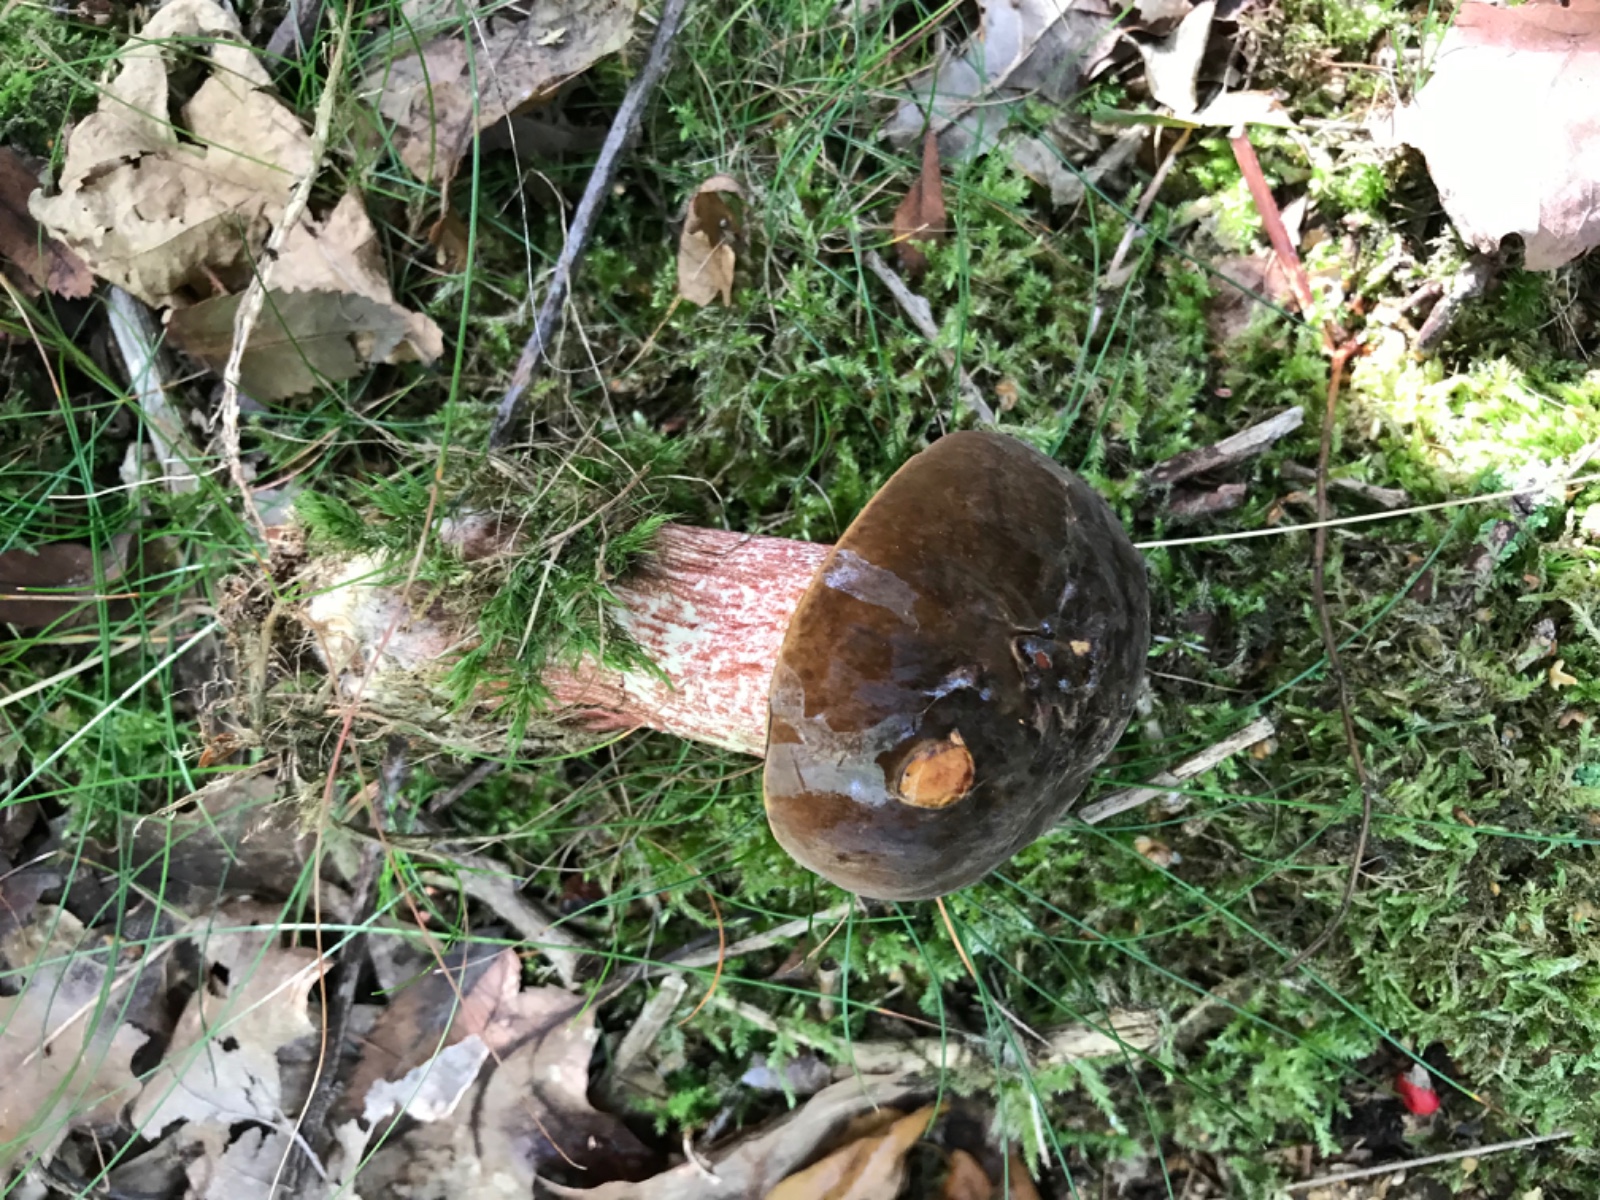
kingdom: Fungi
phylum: Basidiomycota
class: Agaricomycetes
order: Boletales
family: Boletaceae
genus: Neoboletus
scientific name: Neoboletus erythropus
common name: punktstokket indigorørhat
